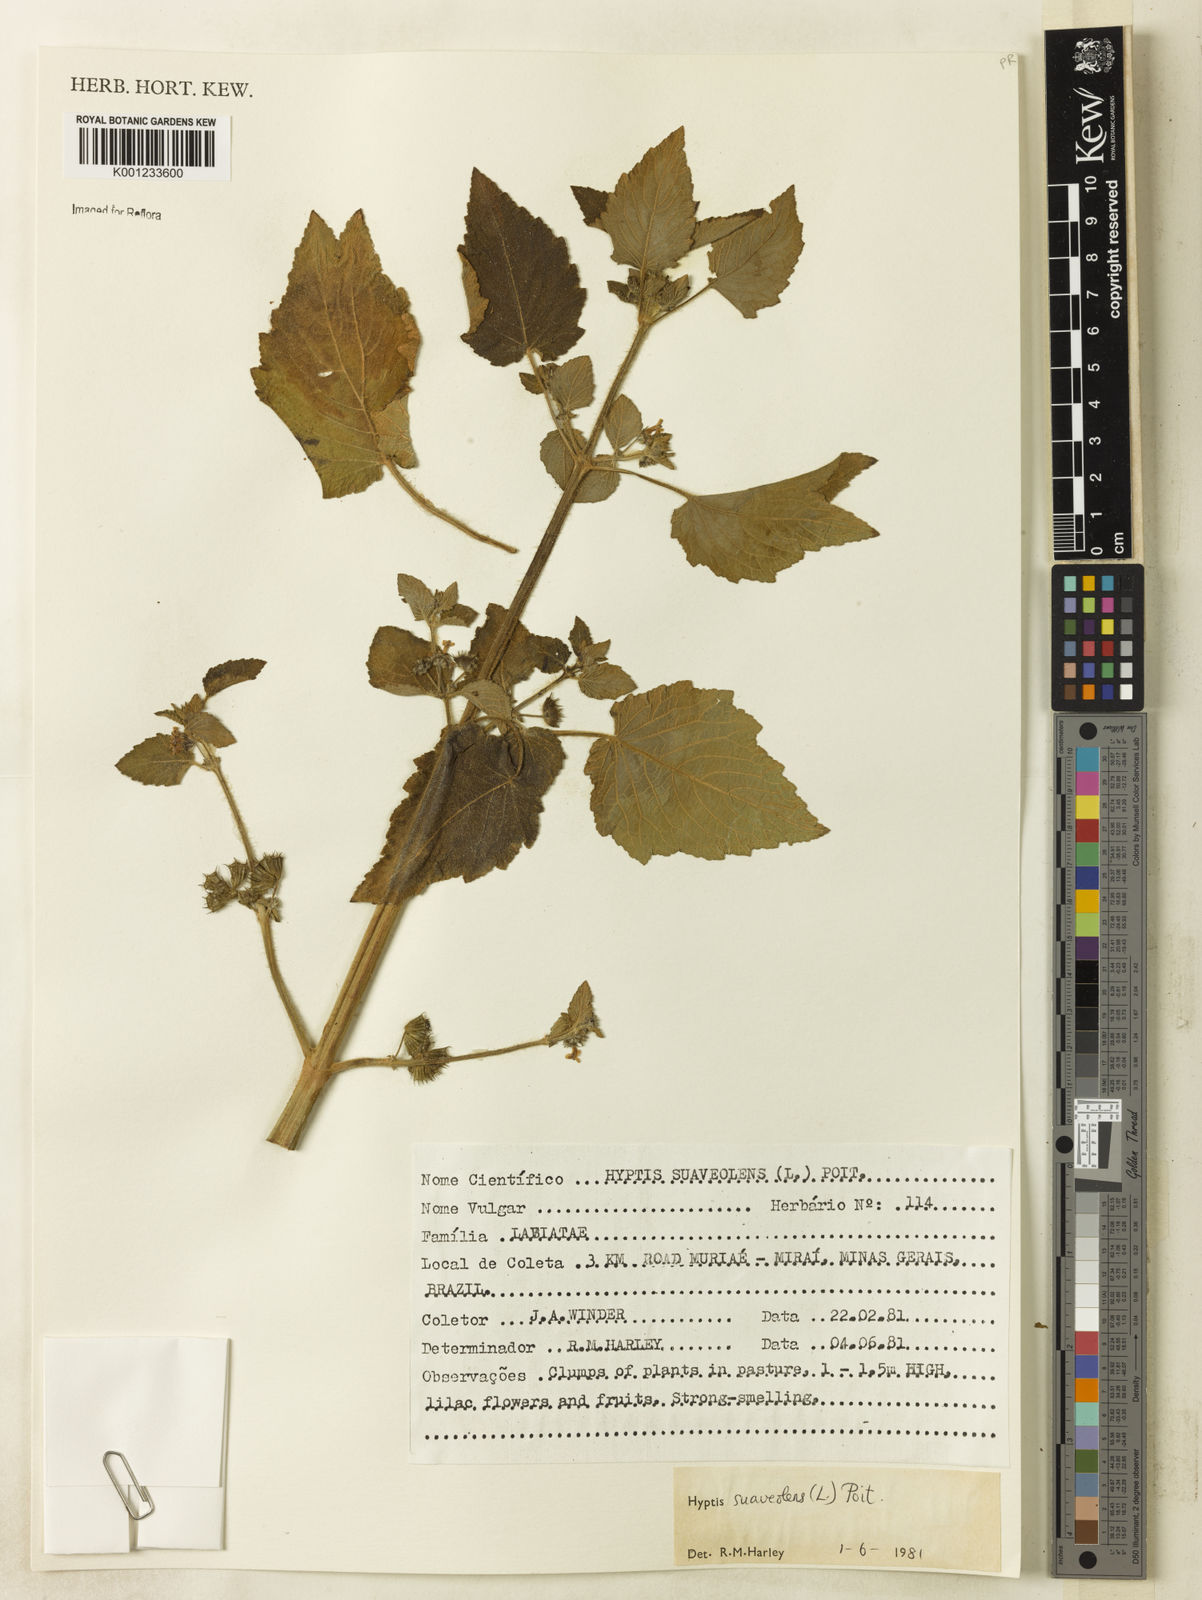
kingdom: Plantae
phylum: Tracheophyta
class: Magnoliopsida
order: Lamiales
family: Lamiaceae
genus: Mesosphaerum
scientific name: Mesosphaerum suaveolens
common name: Pignut
